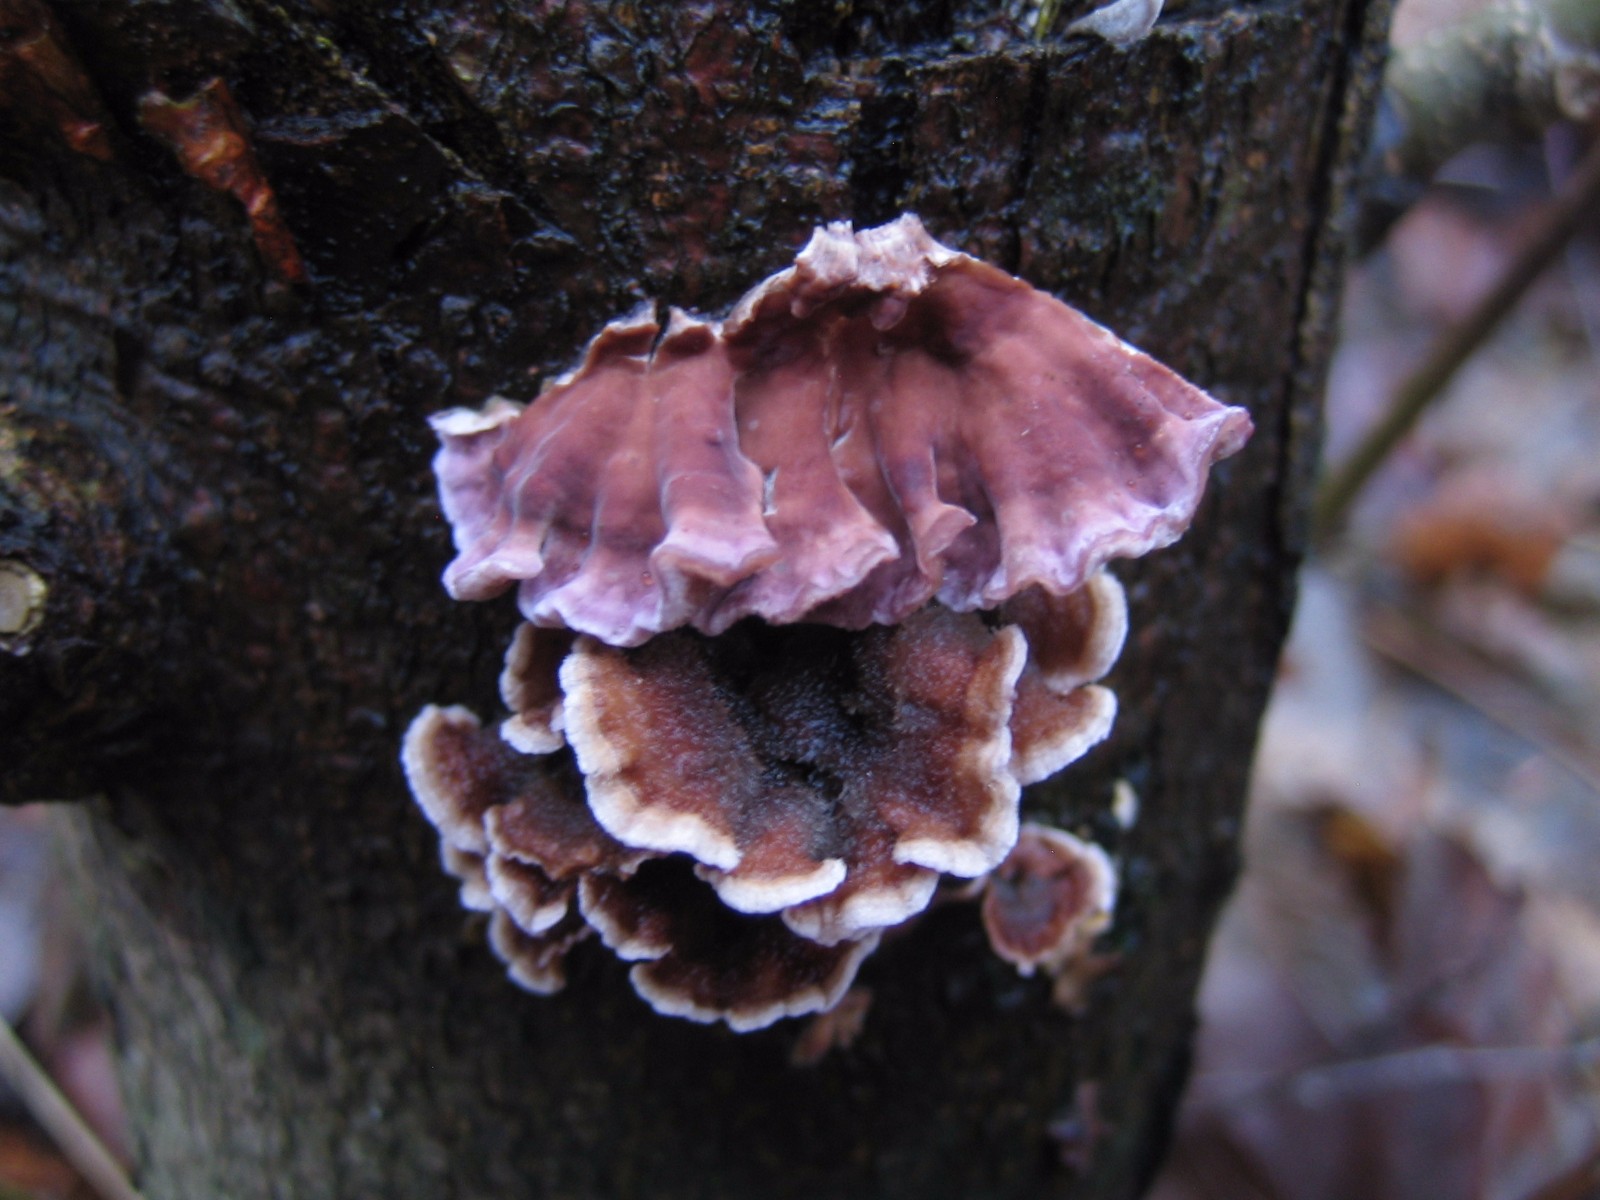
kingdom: Fungi
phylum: Basidiomycota
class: Agaricomycetes
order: Agaricales
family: Cyphellaceae
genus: Chondrostereum
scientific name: Chondrostereum purpureum
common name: purpurlædersvamp
